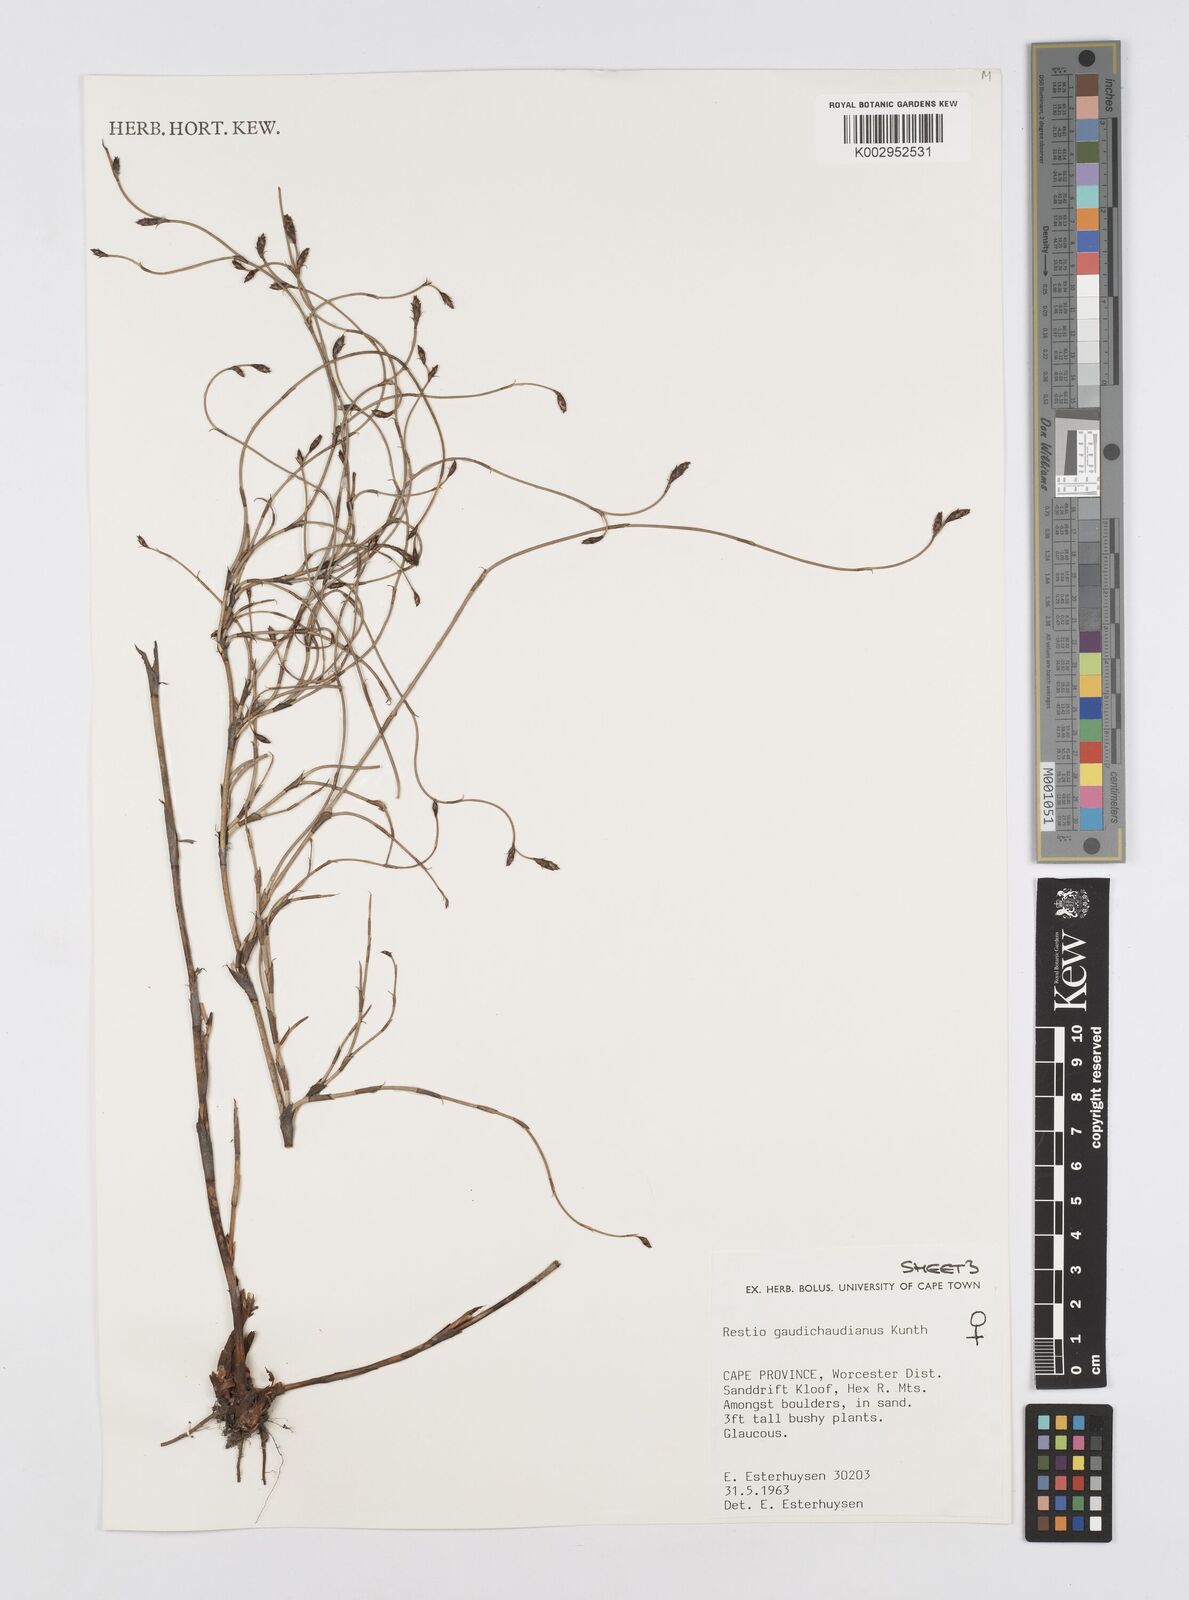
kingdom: Plantae
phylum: Tracheophyta
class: Liliopsida
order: Poales
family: Restionaceae
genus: Restio
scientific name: Restio gaudichaudianus
